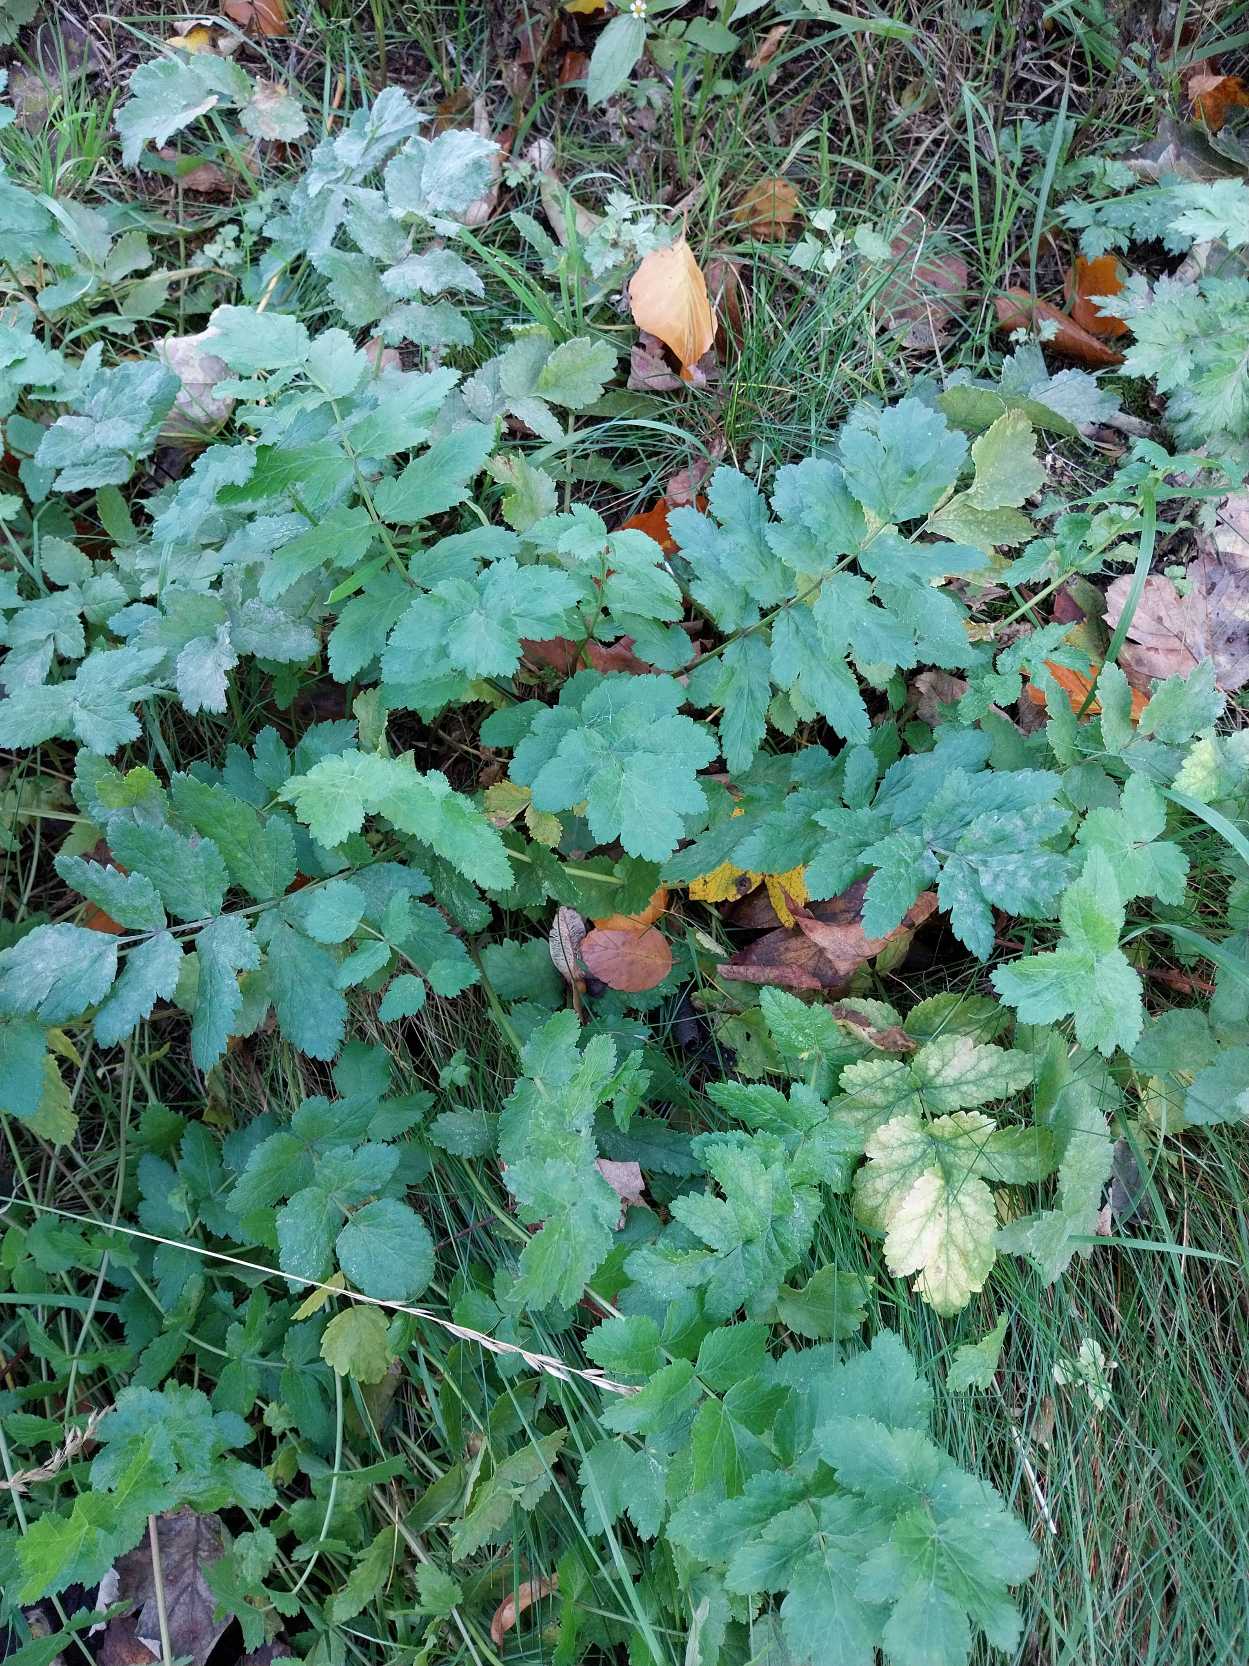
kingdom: Plantae
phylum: Tracheophyta
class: Magnoliopsida
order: Apiales
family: Apiaceae
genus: Pastinaca
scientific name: Pastinaca sativa
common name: Pastinak
